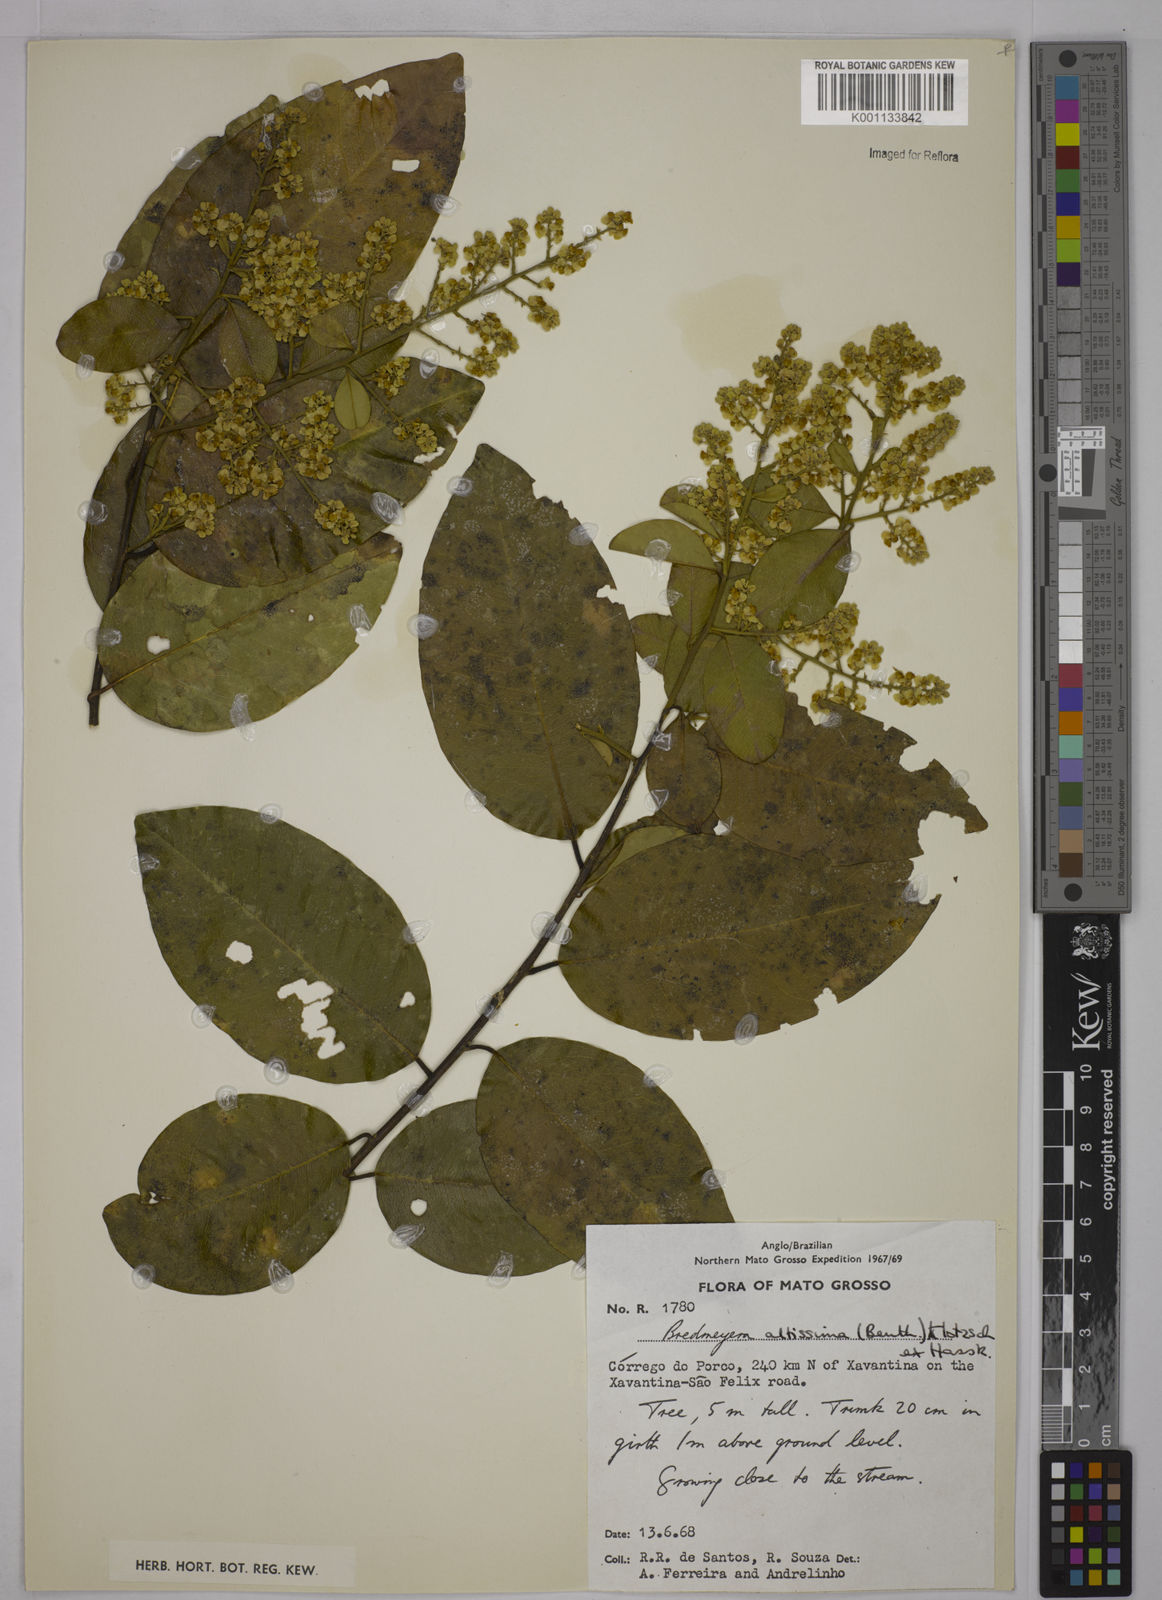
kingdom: Plantae
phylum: Tracheophyta
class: Magnoliopsida
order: Fabales
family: Polygalaceae
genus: Bredemeyera
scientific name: Bredemeyera divaricata
